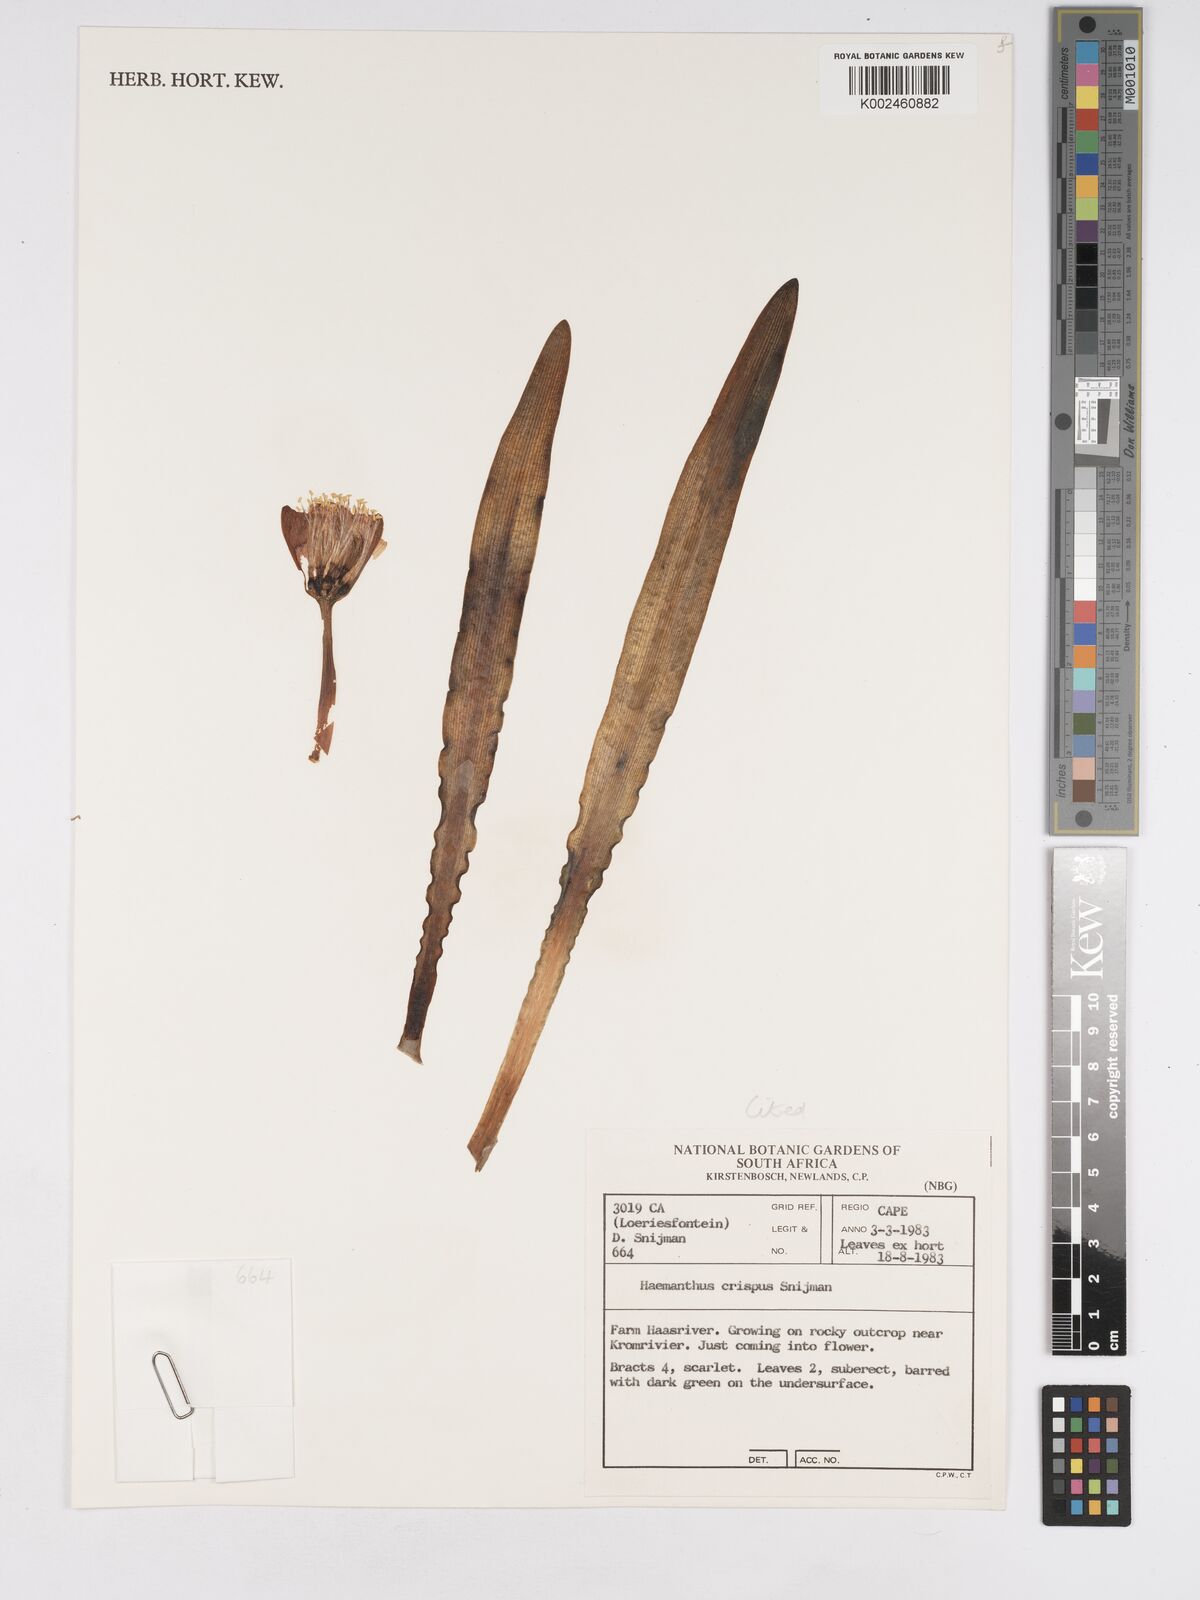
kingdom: Plantae
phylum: Tracheophyta
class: Liliopsida
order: Asparagales
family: Amaryllidaceae
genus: Haemanthus
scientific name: Haemanthus crispus
